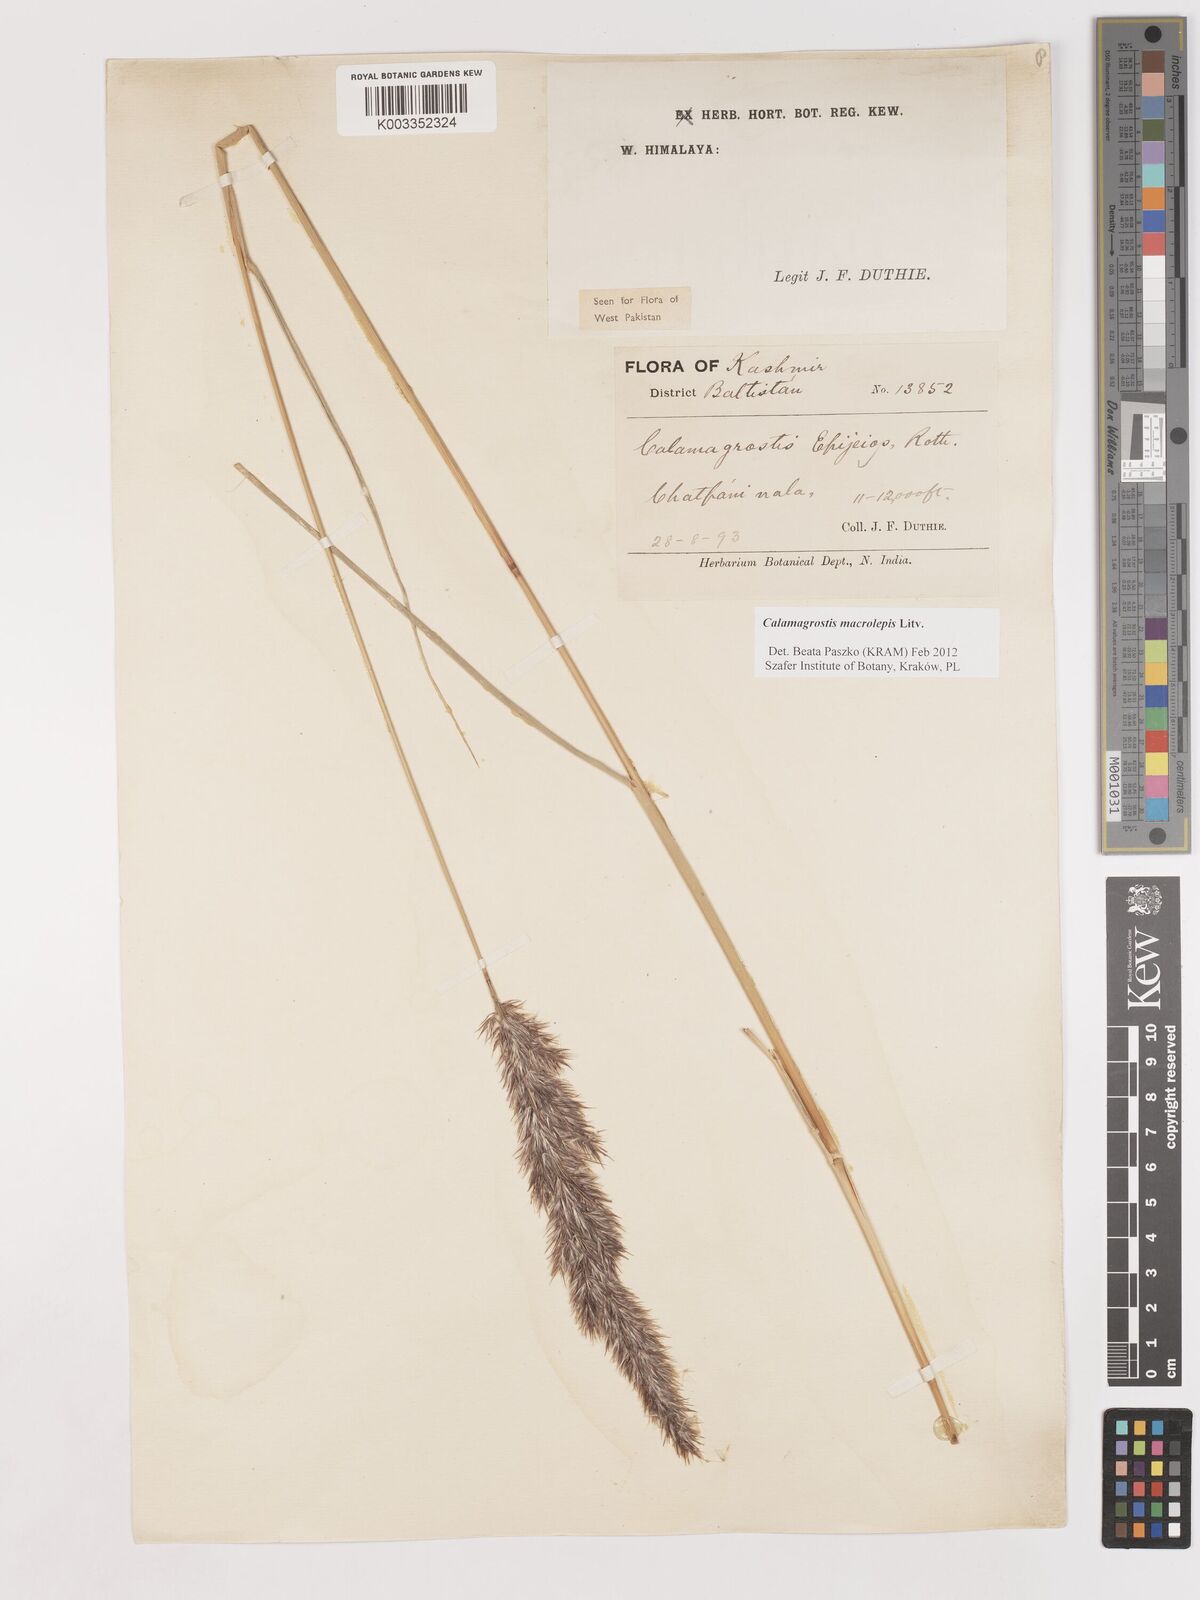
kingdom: Plantae
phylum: Tracheophyta
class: Liliopsida
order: Poales
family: Poaceae
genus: Calamagrostis
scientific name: Calamagrostis epigejos
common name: Wood small-reed
